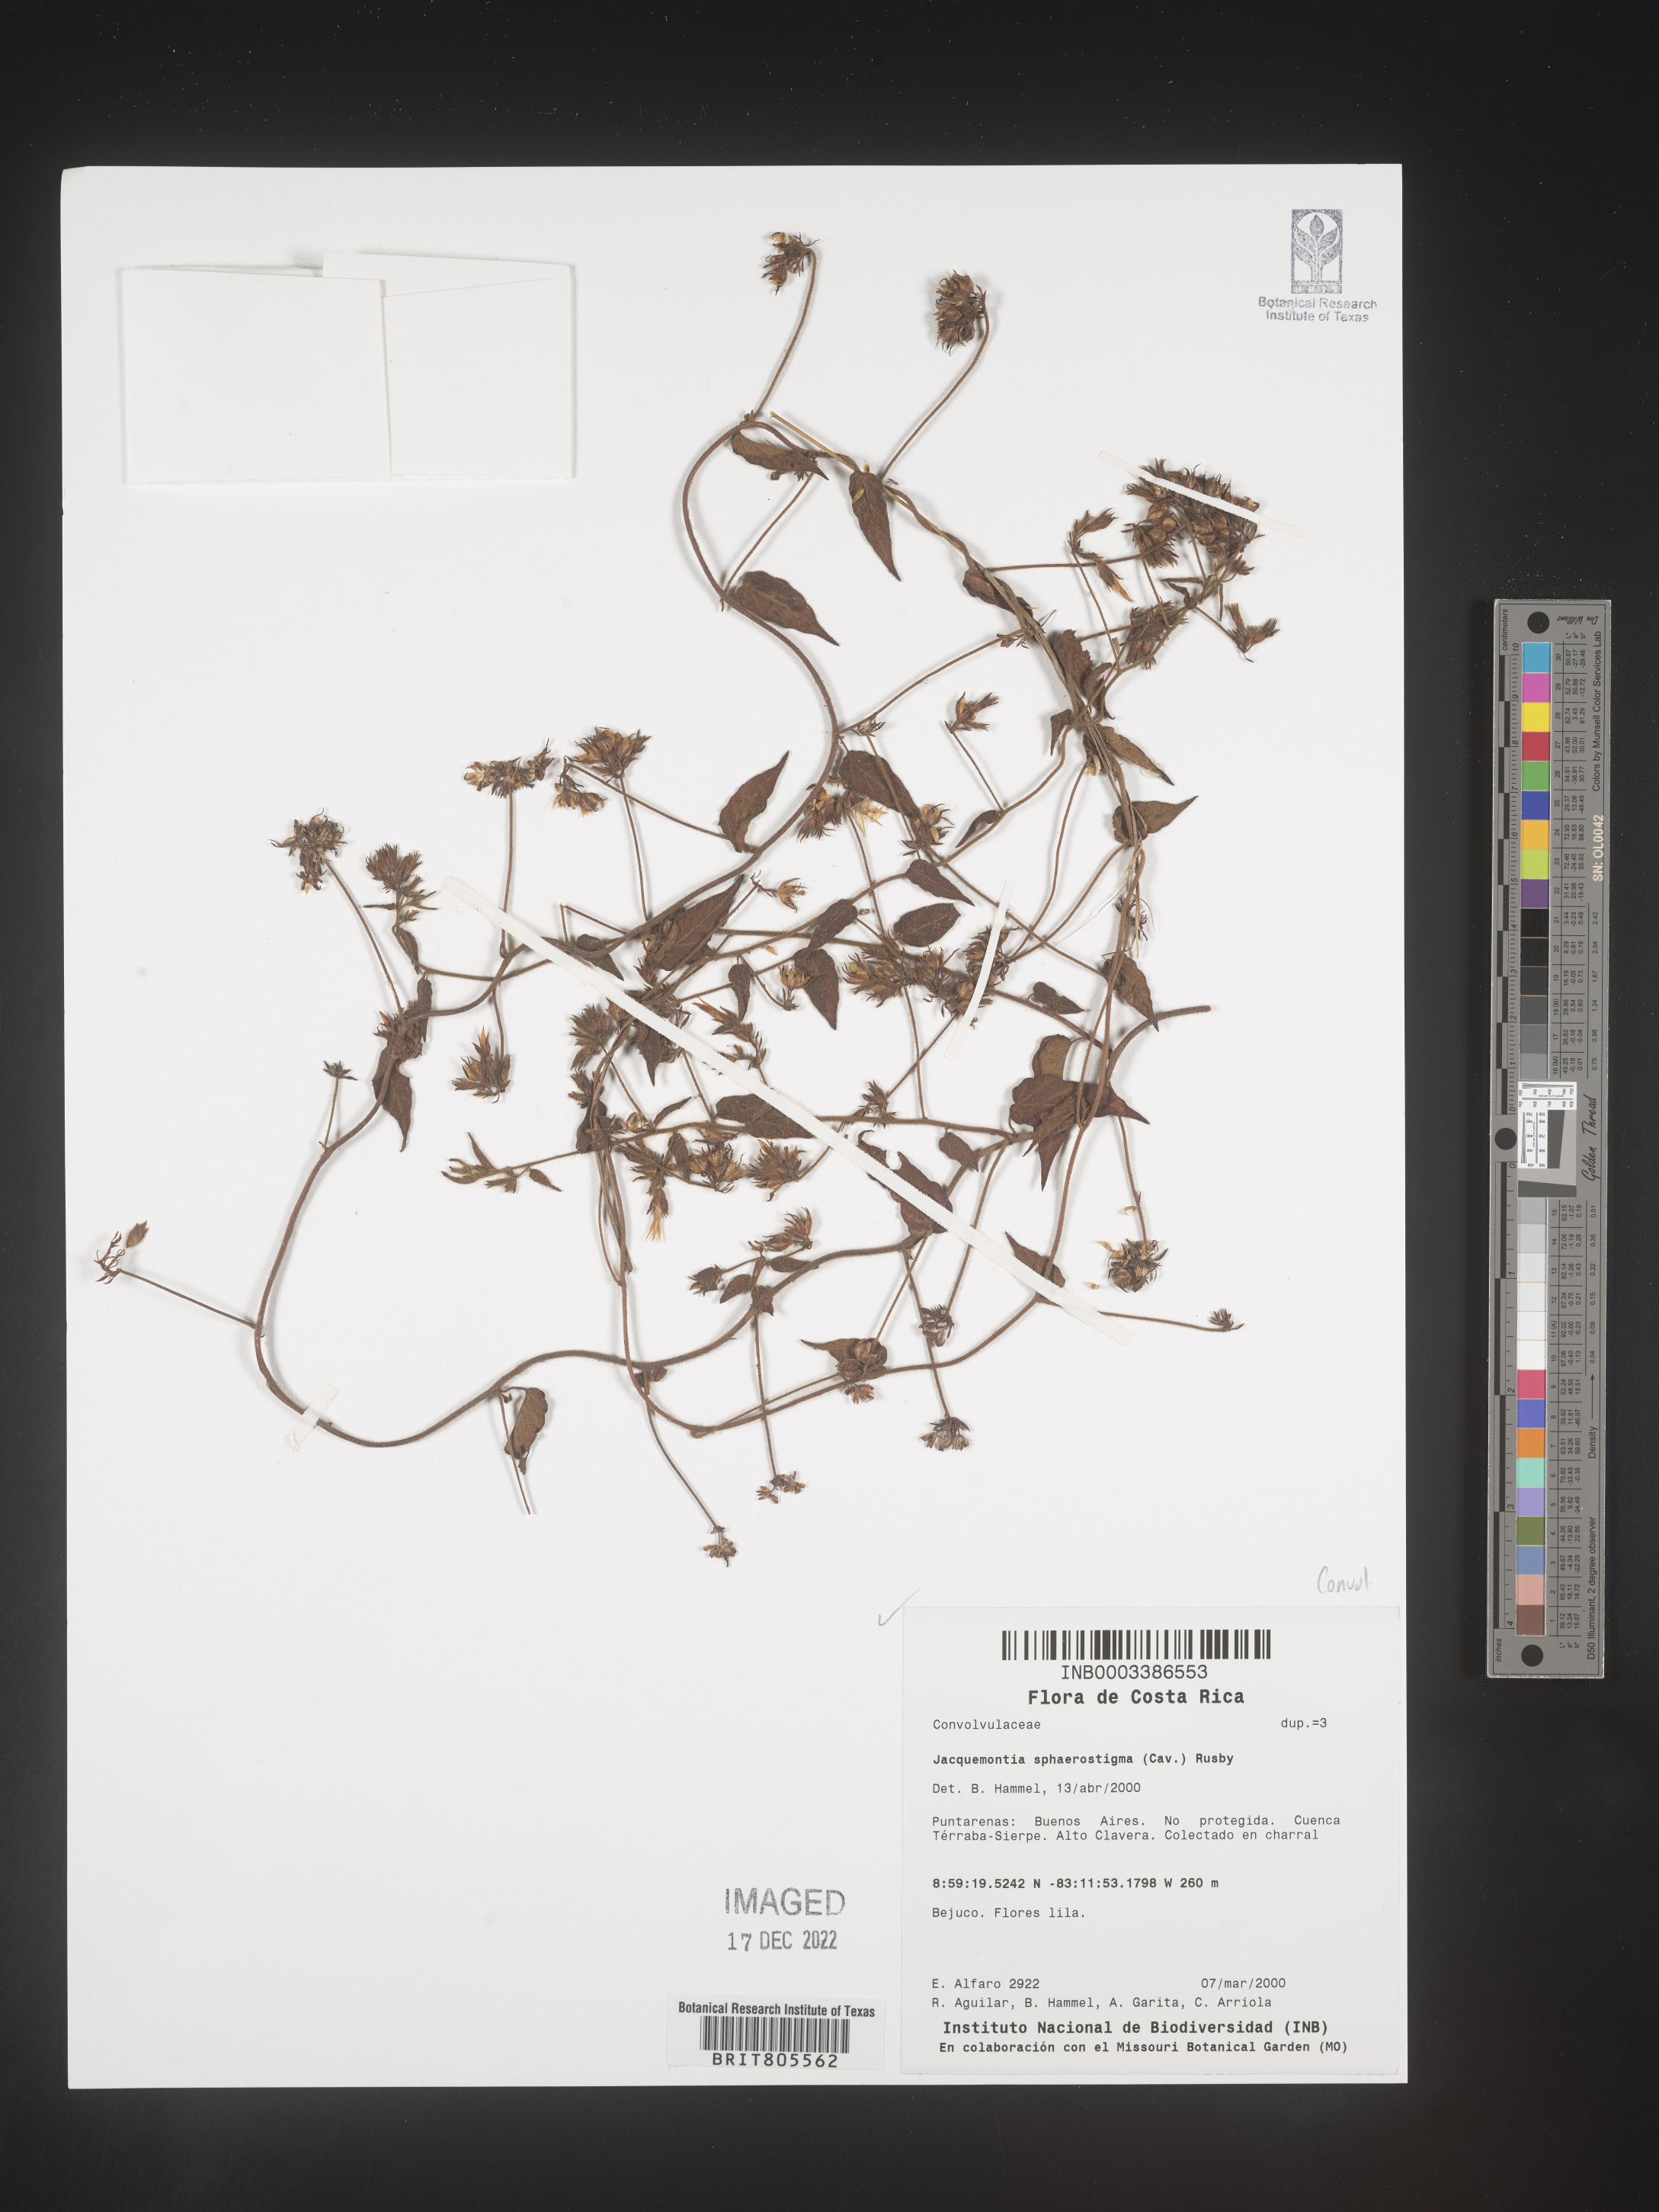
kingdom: Plantae
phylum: Tracheophyta
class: Magnoliopsida
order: Solanales
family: Convolvulaceae
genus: Jacquemontia
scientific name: Jacquemontia
